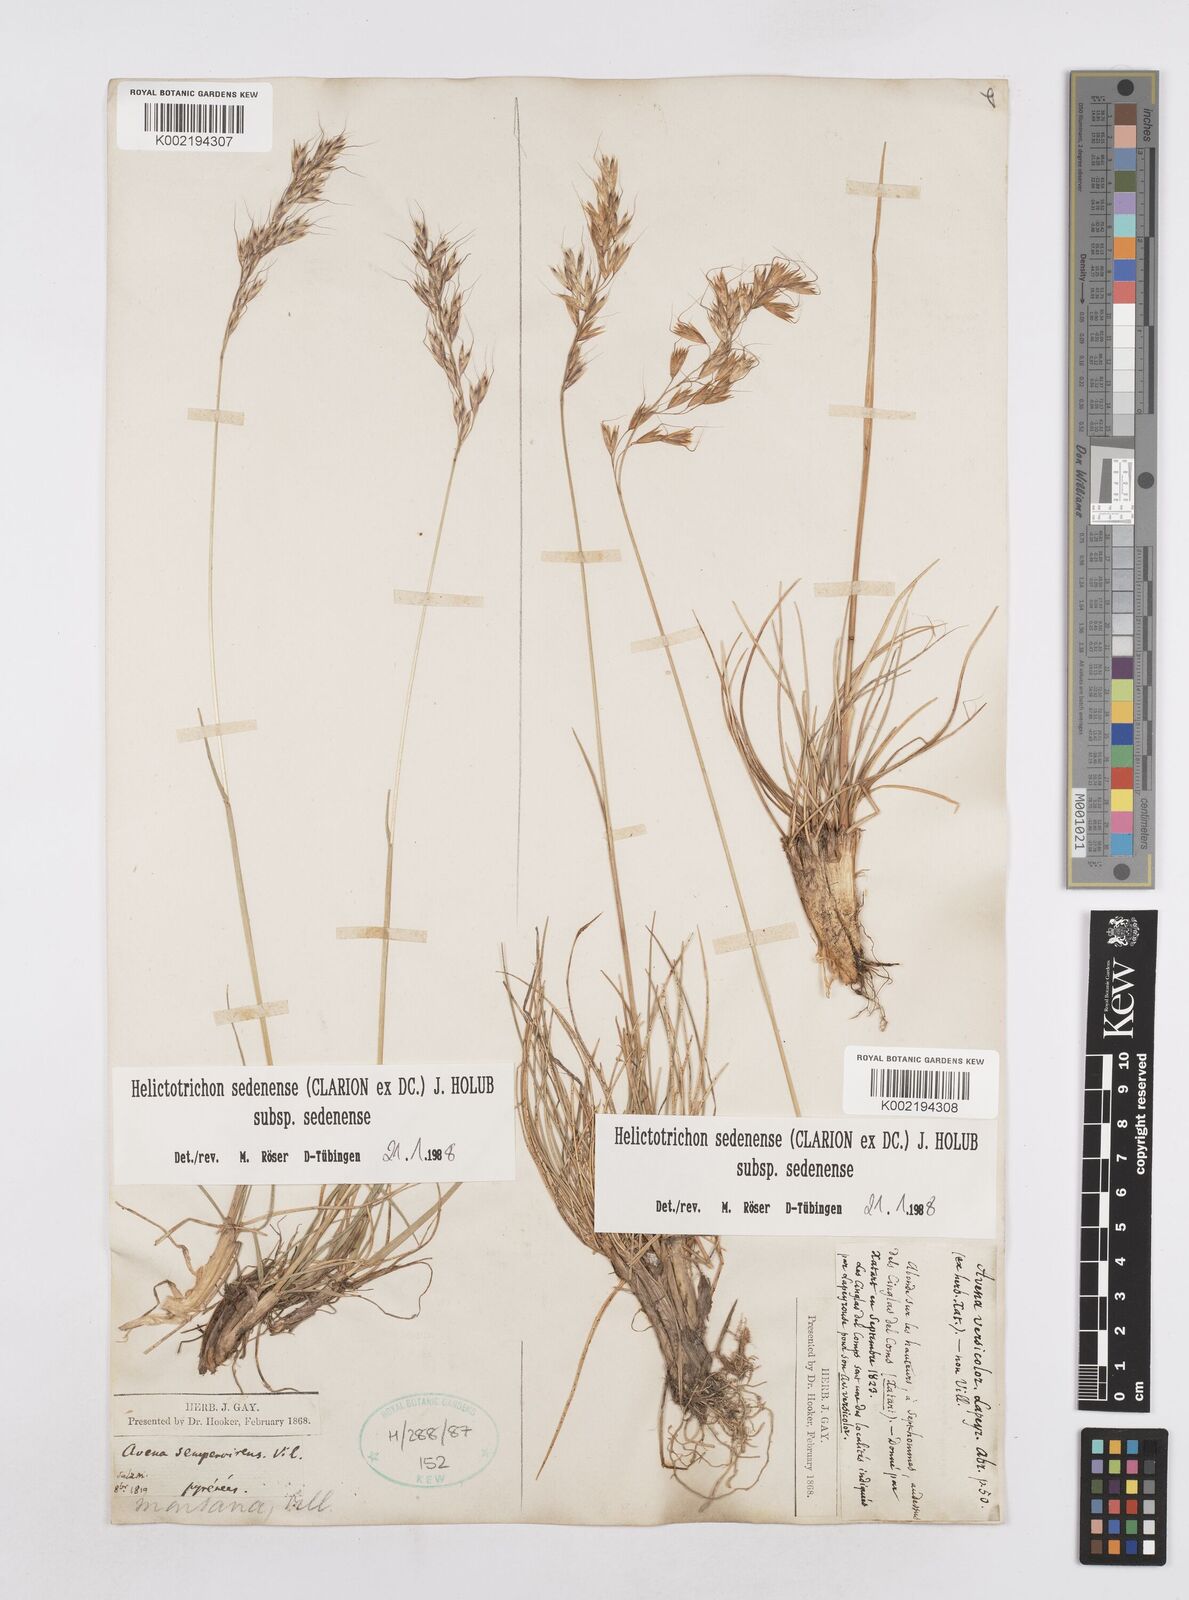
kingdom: Plantae
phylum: Tracheophyta
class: Liliopsida
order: Poales
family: Poaceae
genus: Helictotrichon
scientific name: Helictotrichon sedenense
